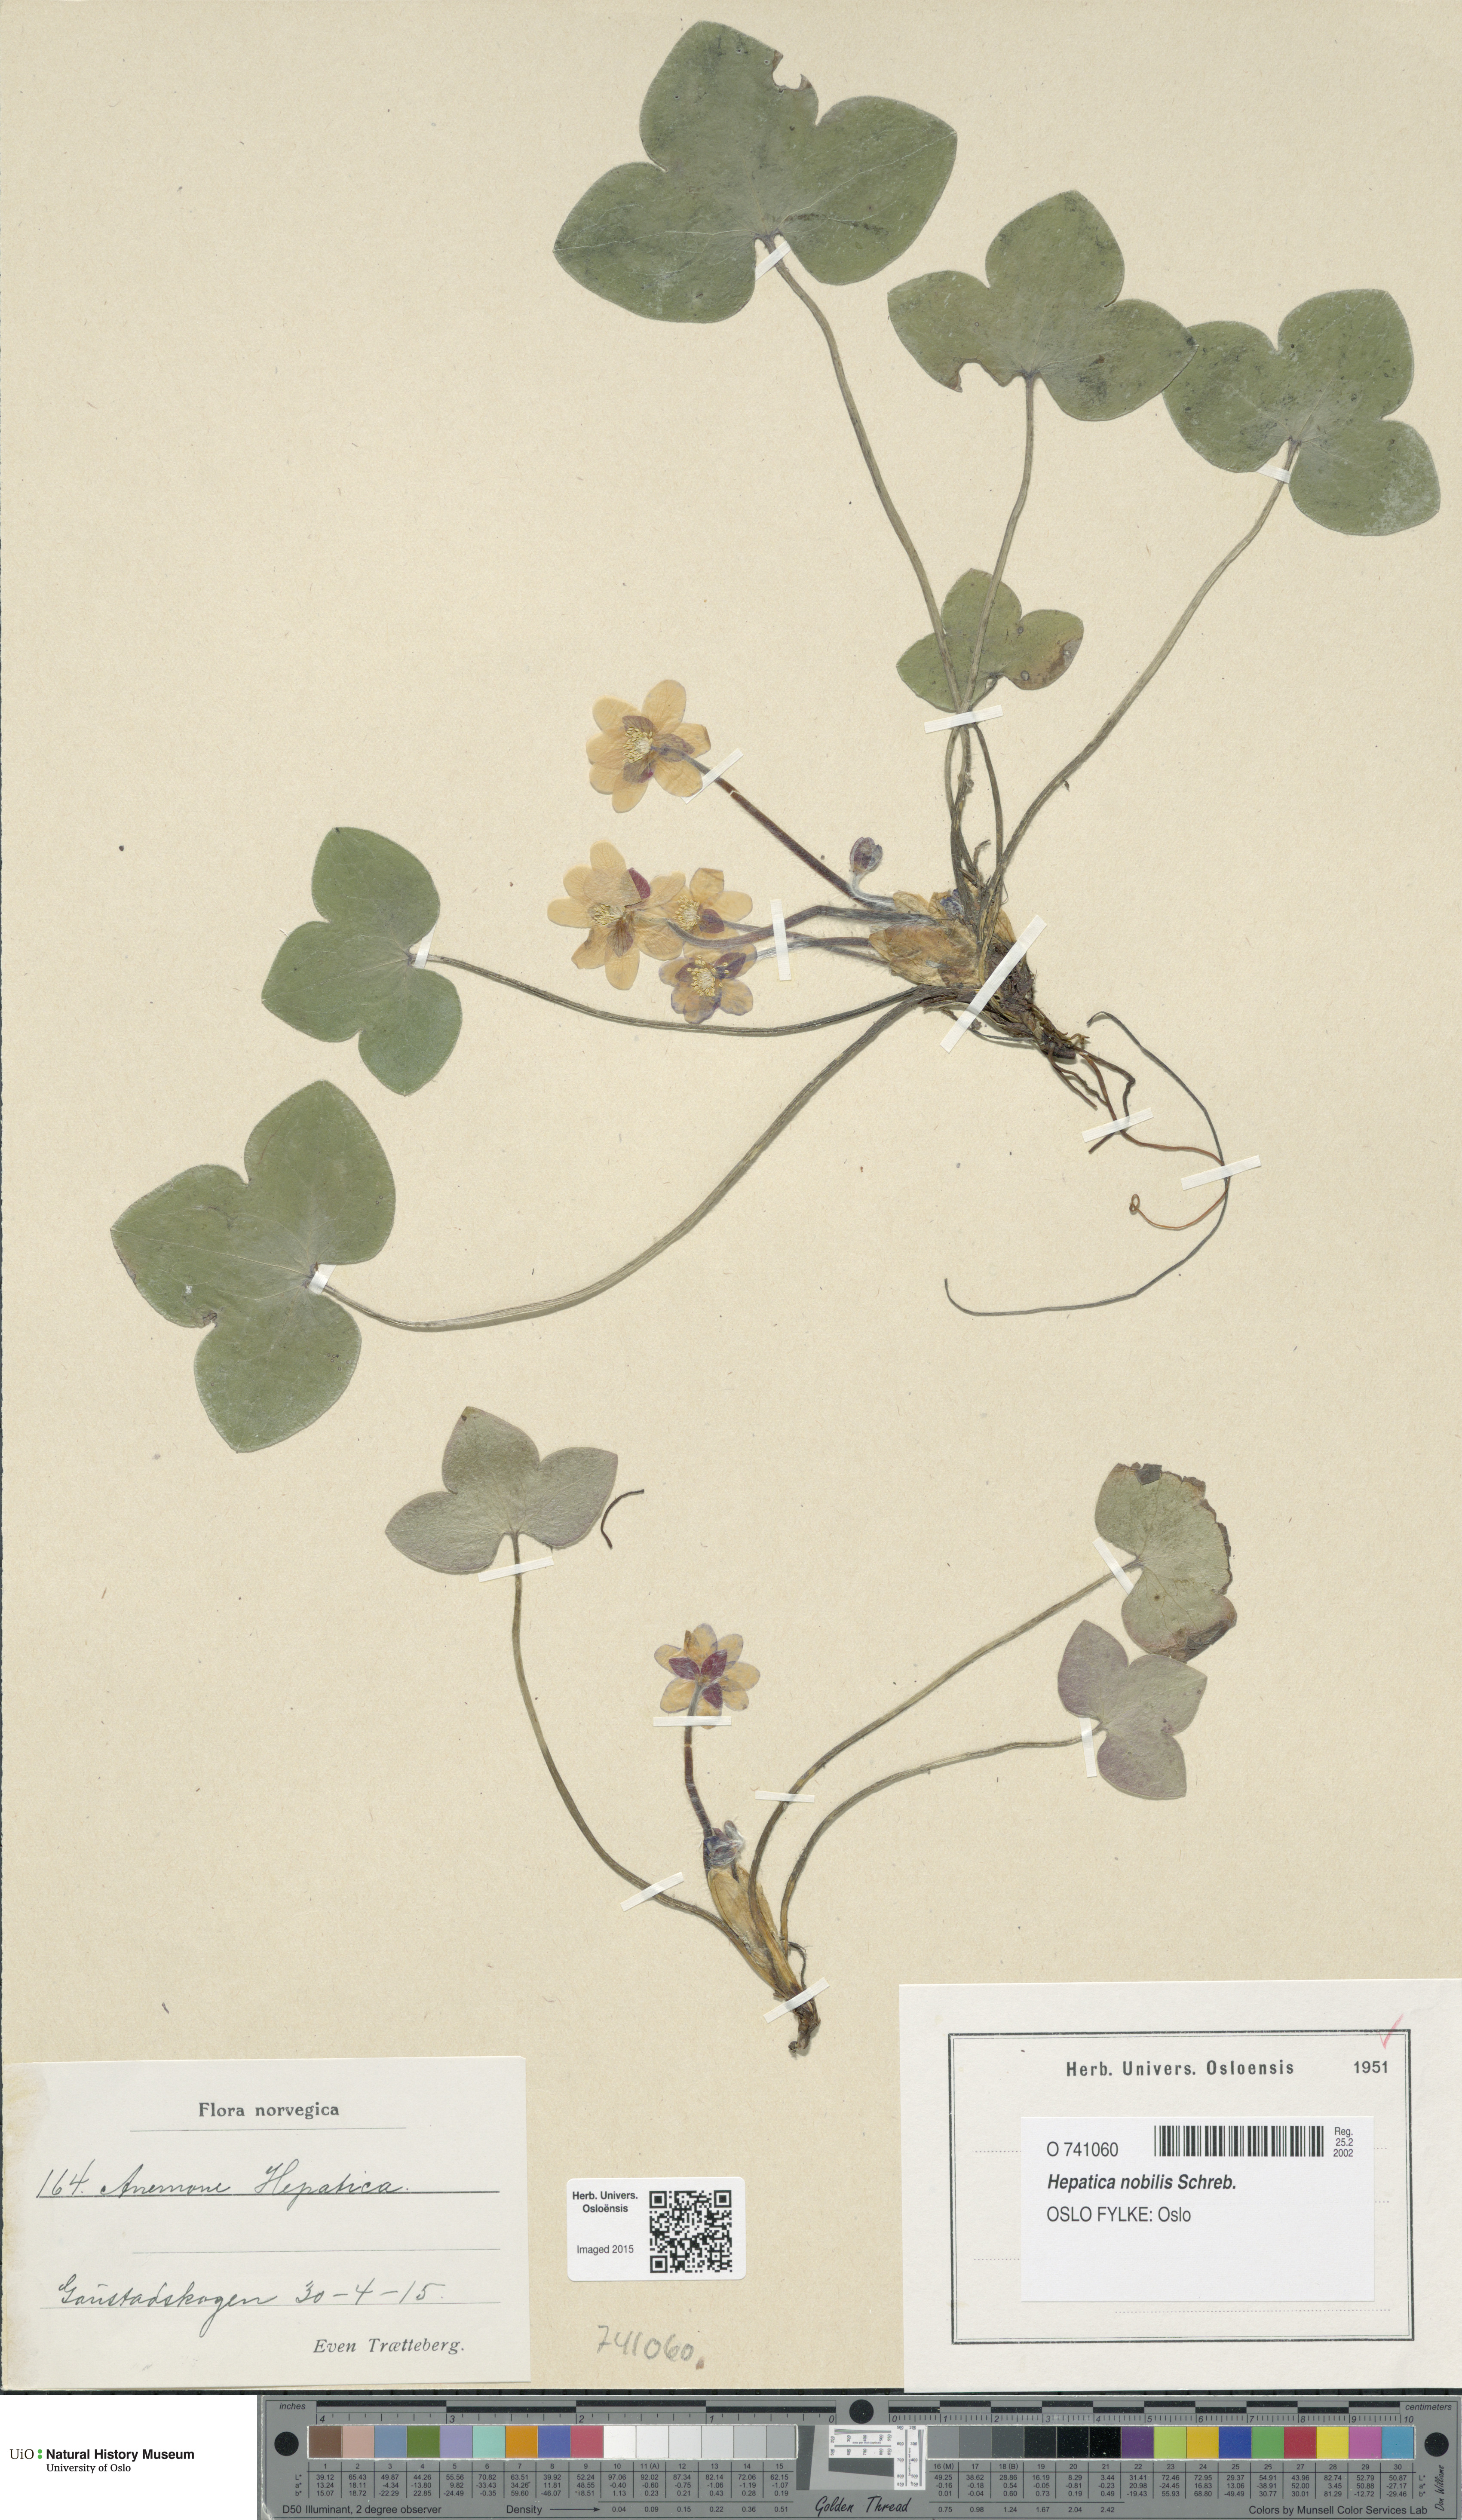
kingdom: Plantae
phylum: Tracheophyta
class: Magnoliopsida
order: Ranunculales
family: Ranunculaceae
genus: Hepatica
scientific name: Hepatica nobilis
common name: Liverleaf
